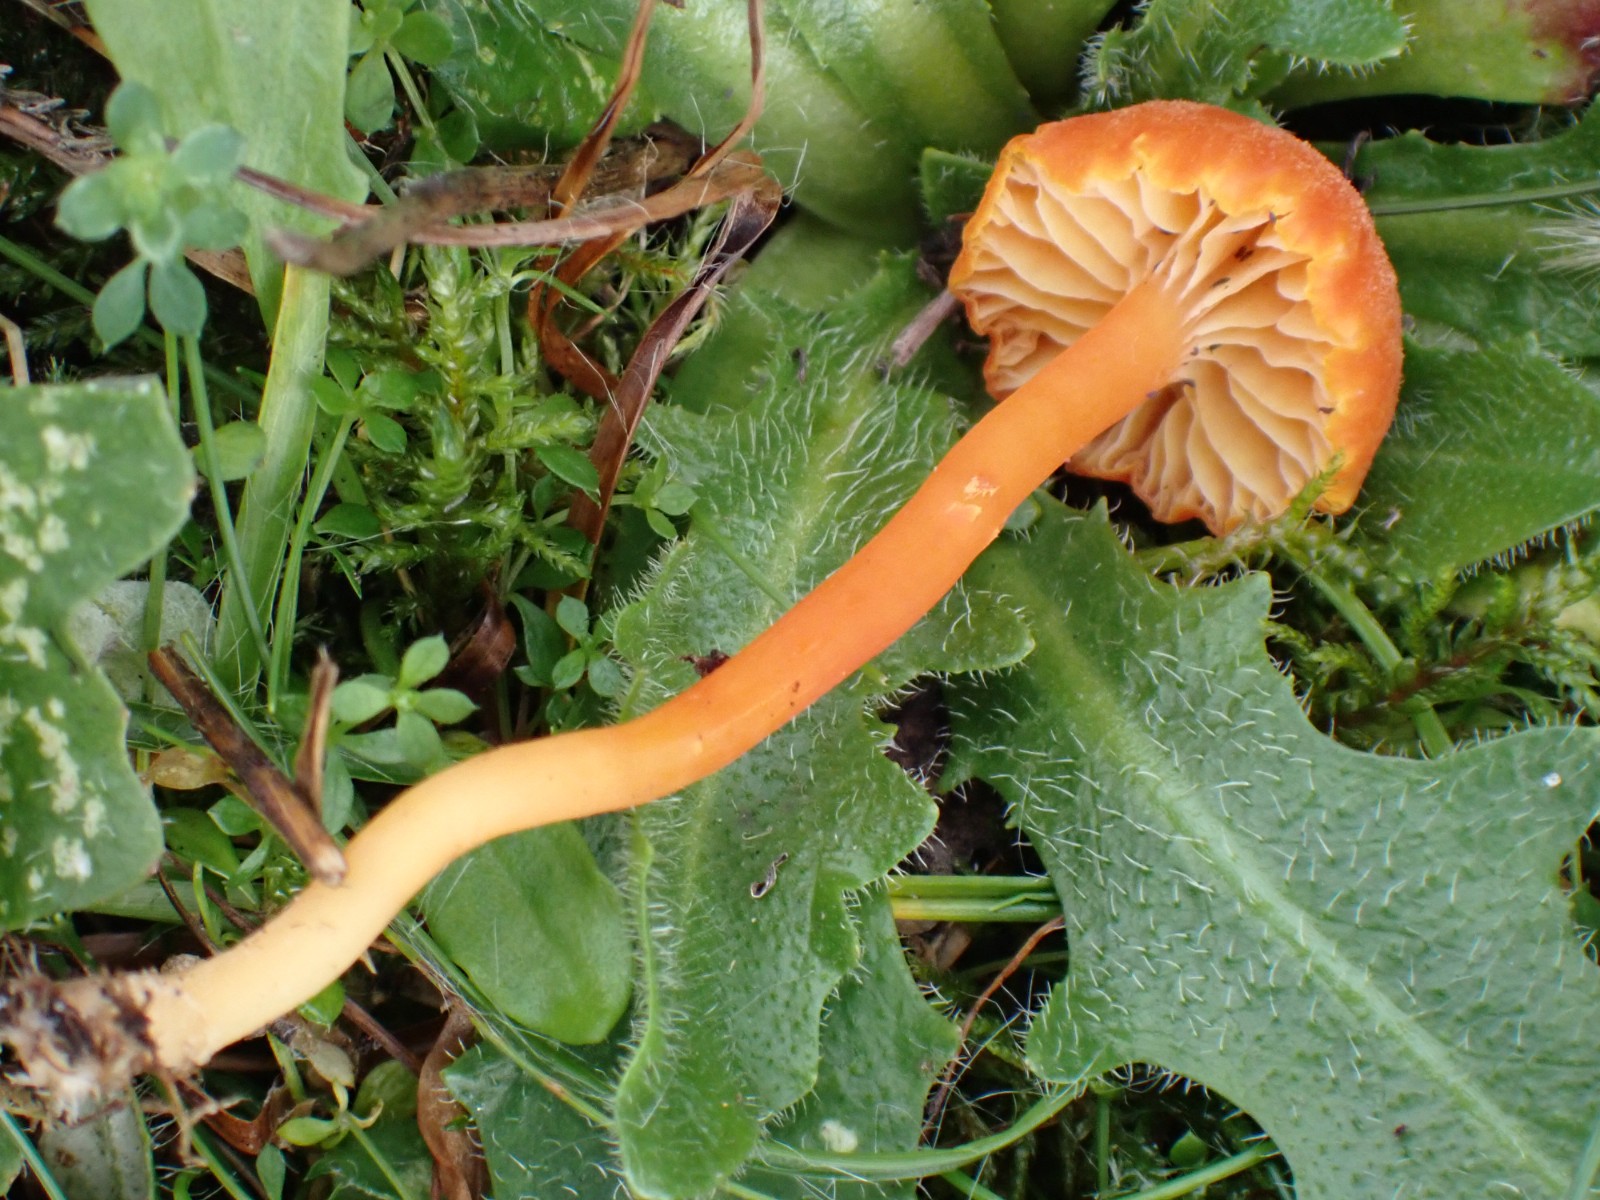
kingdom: Fungi
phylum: Basidiomycota
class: Agaricomycetes
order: Agaricales
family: Hygrophoraceae
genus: Hygrocybe
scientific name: Hygrocybe cantharellus
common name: kantarel-vokshat
